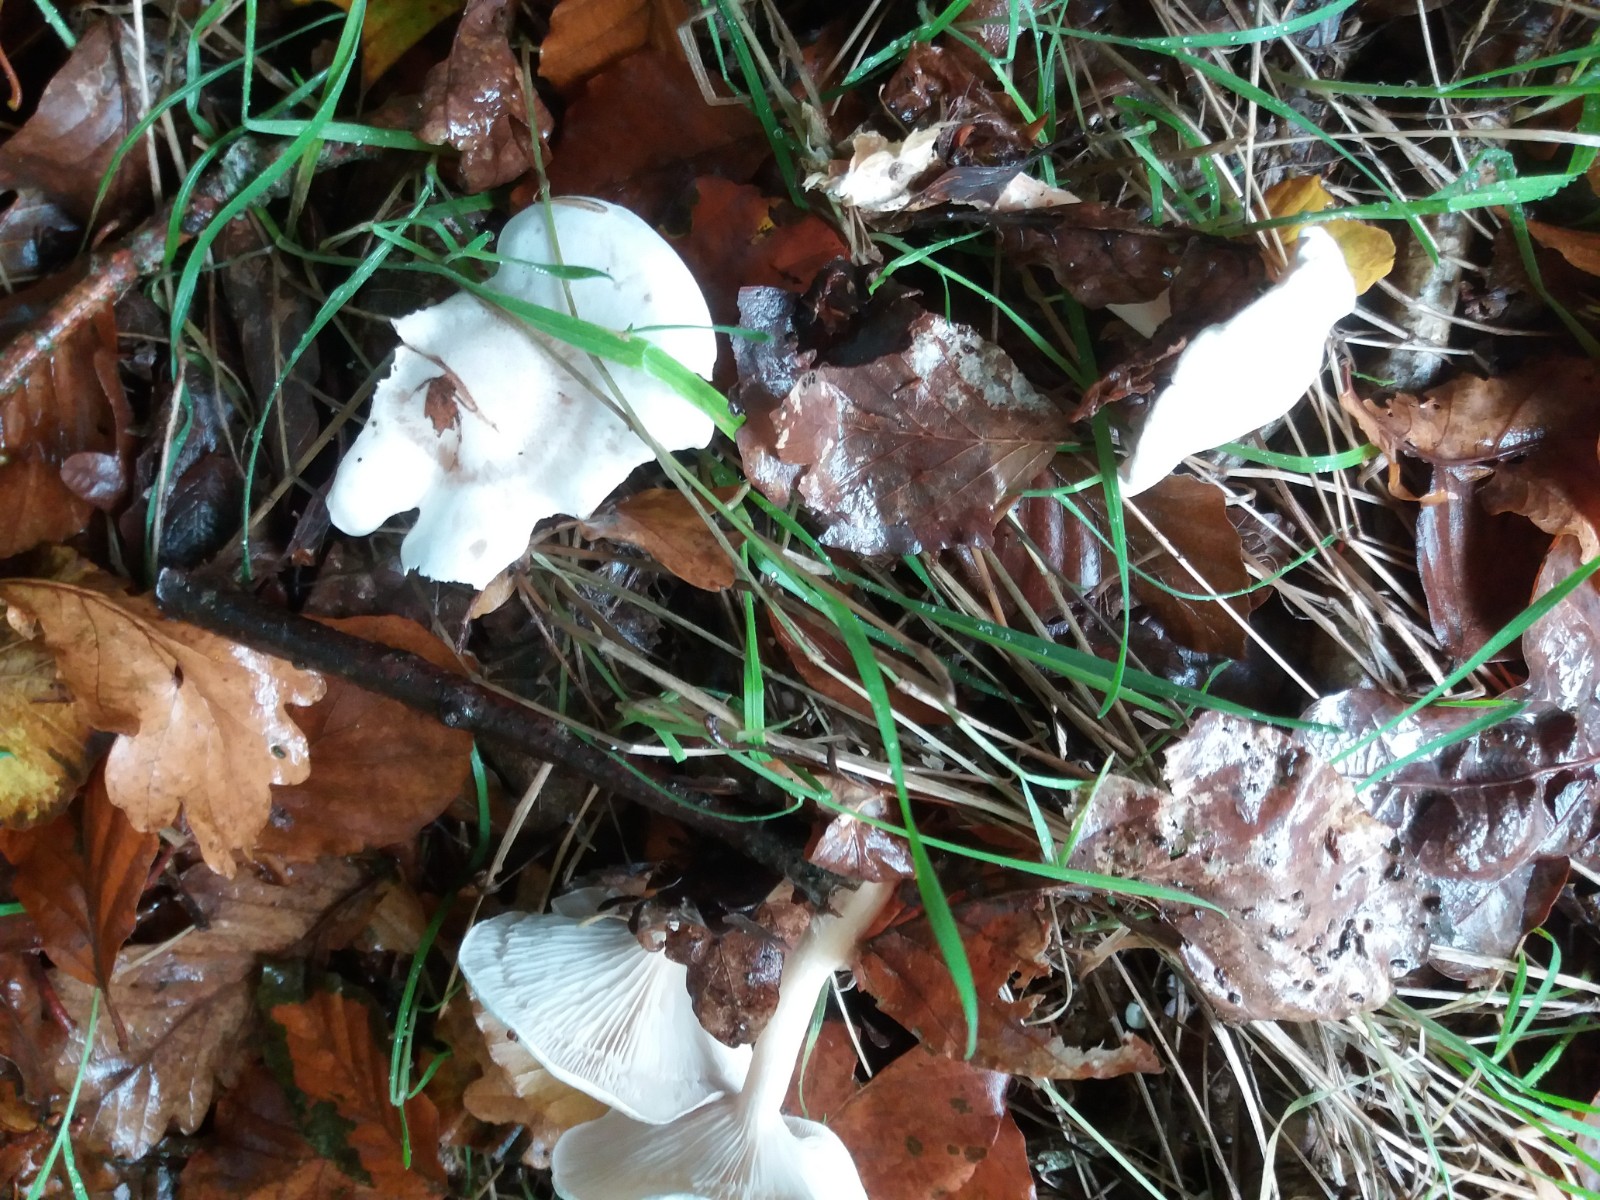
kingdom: Fungi
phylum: Basidiomycota
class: Agaricomycetes
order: Agaricales
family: Tricholomataceae
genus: Clitocybe
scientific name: Clitocybe phyllophila
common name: løv-tragthat
